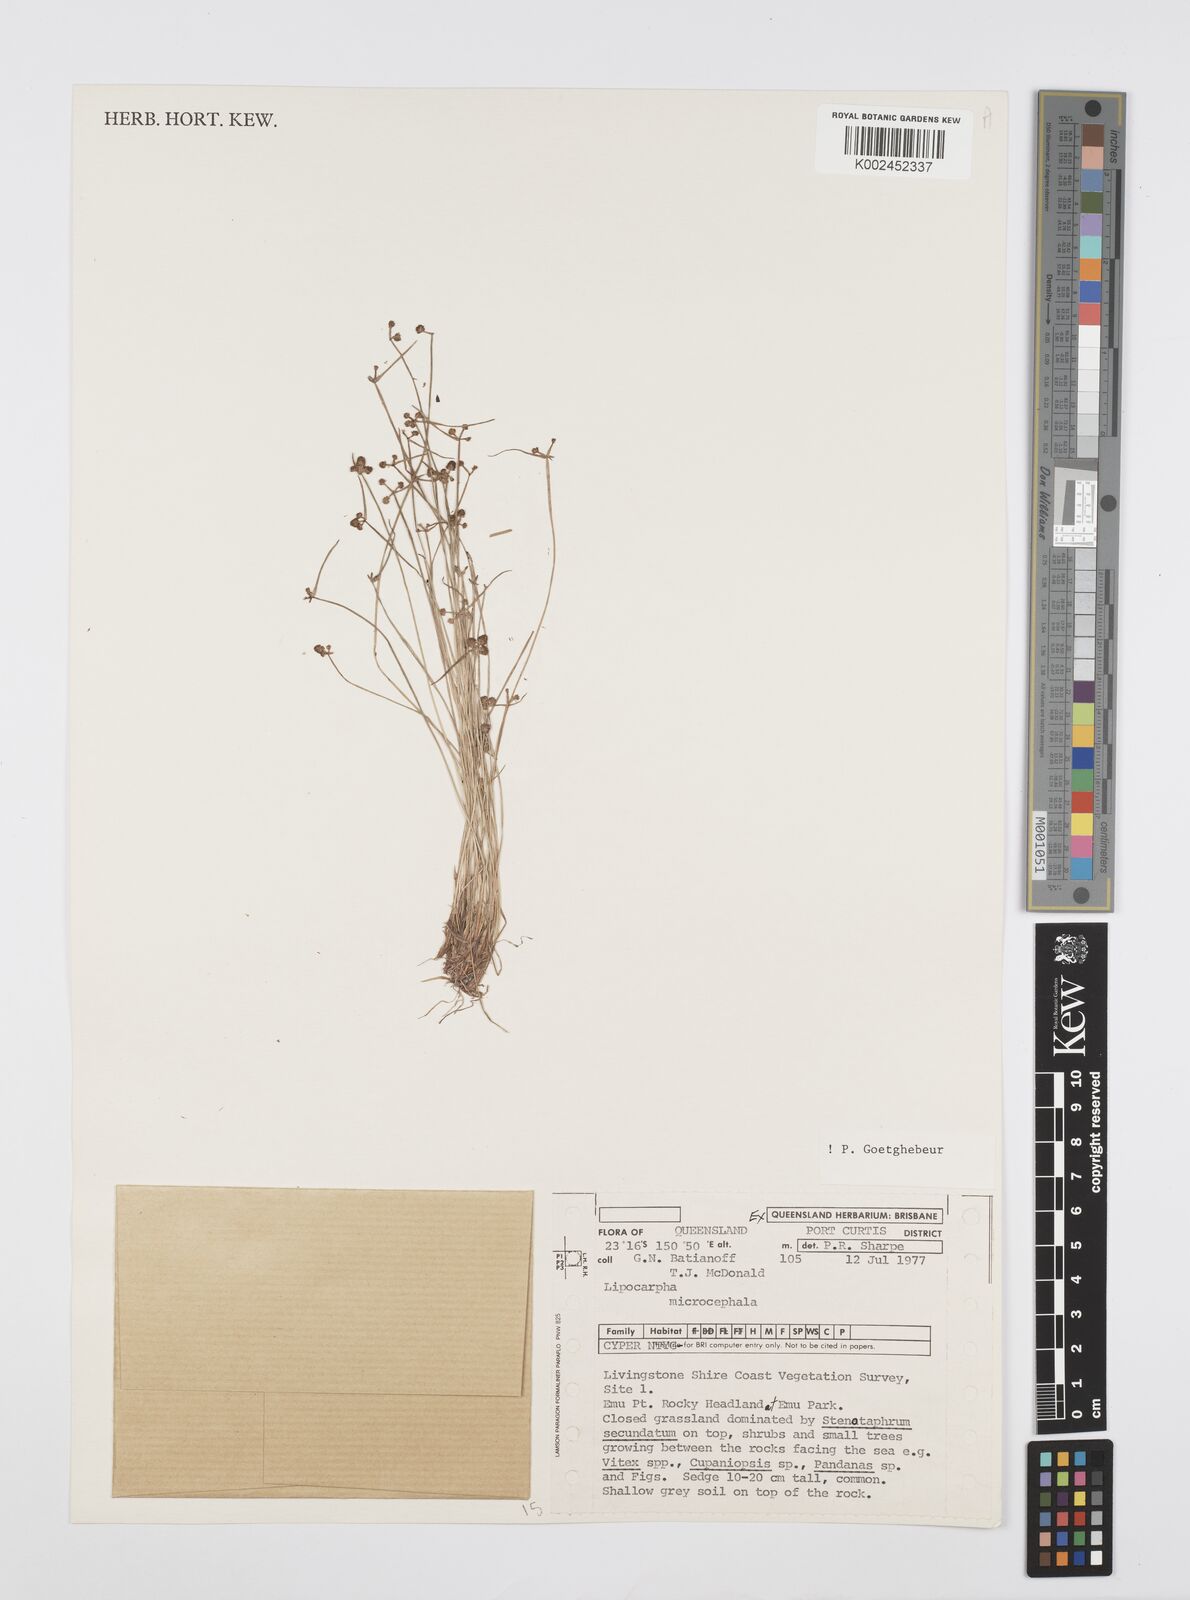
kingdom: Plantae
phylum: Tracheophyta
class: Liliopsida
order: Poales
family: Cyperaceae
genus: Cyperus
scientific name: Cyperus microcephalus
